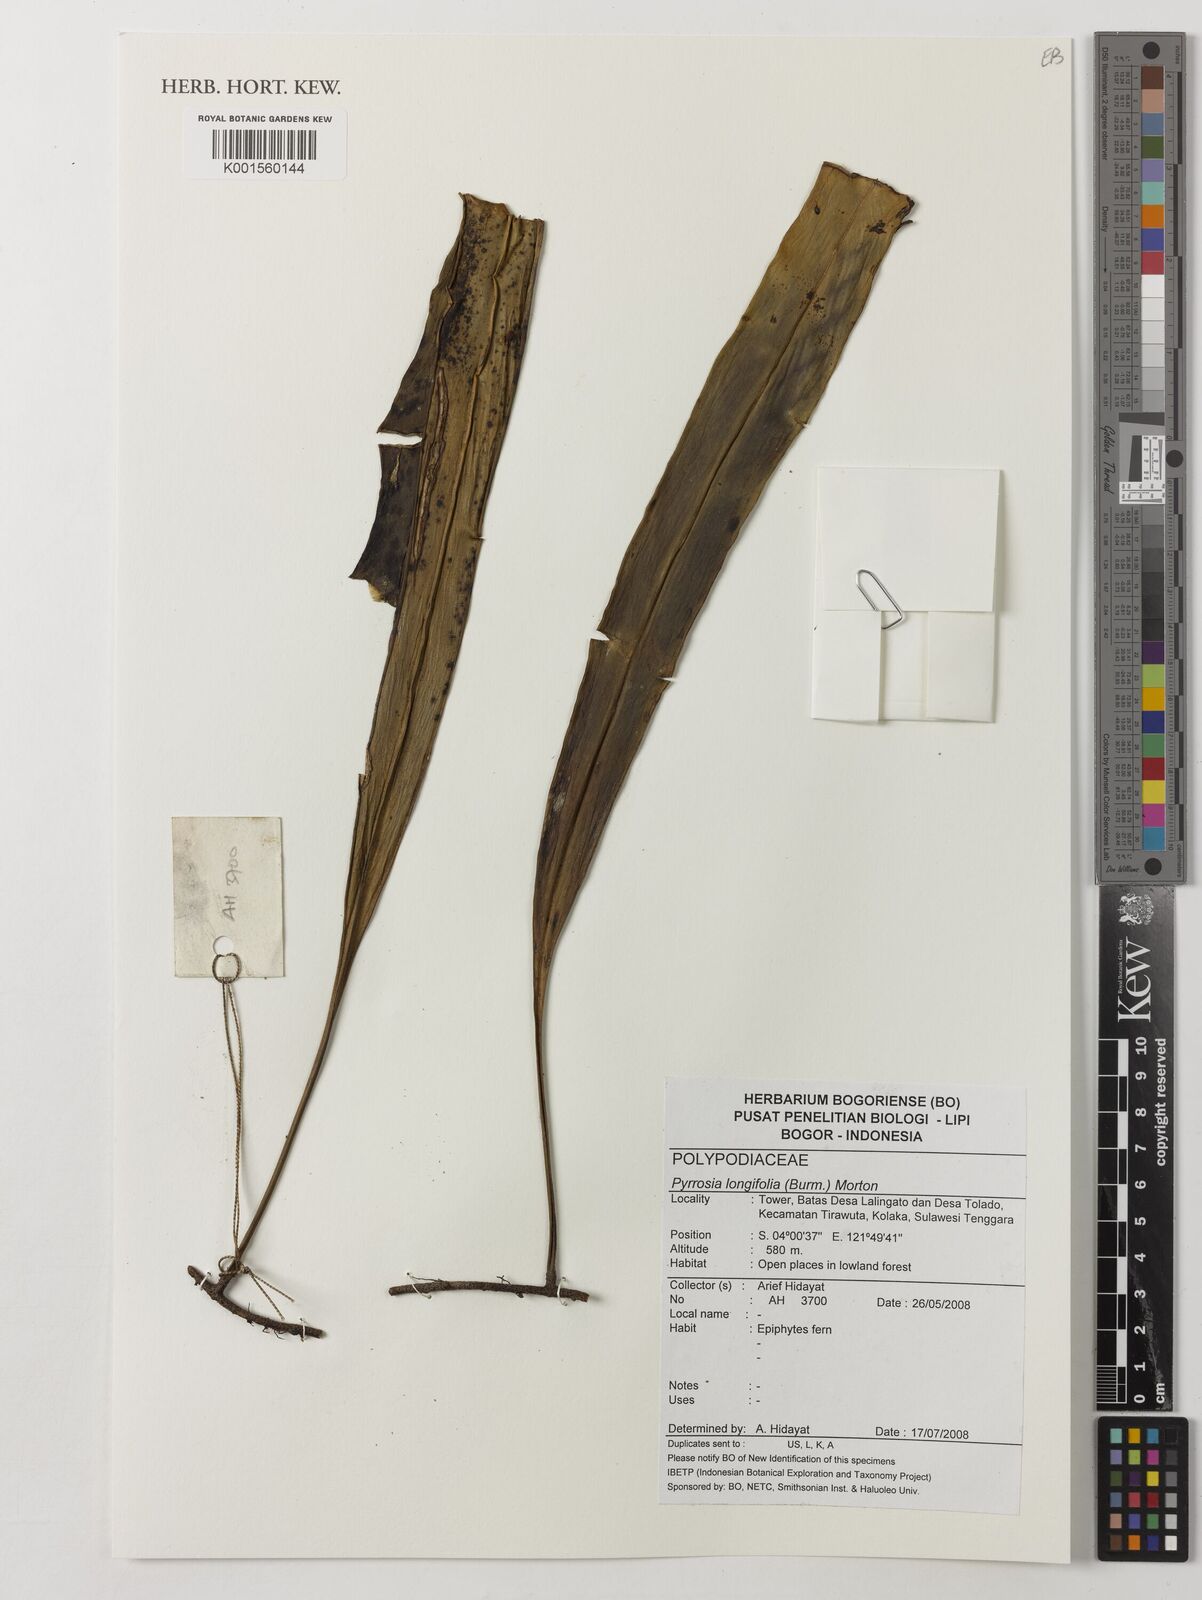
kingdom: Plantae
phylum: Tracheophyta
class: Polypodiopsida
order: Polypodiales
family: Polypodiaceae
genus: Pyrrosia
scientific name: Pyrrosia longifolia
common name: Long-leaved felt fern
